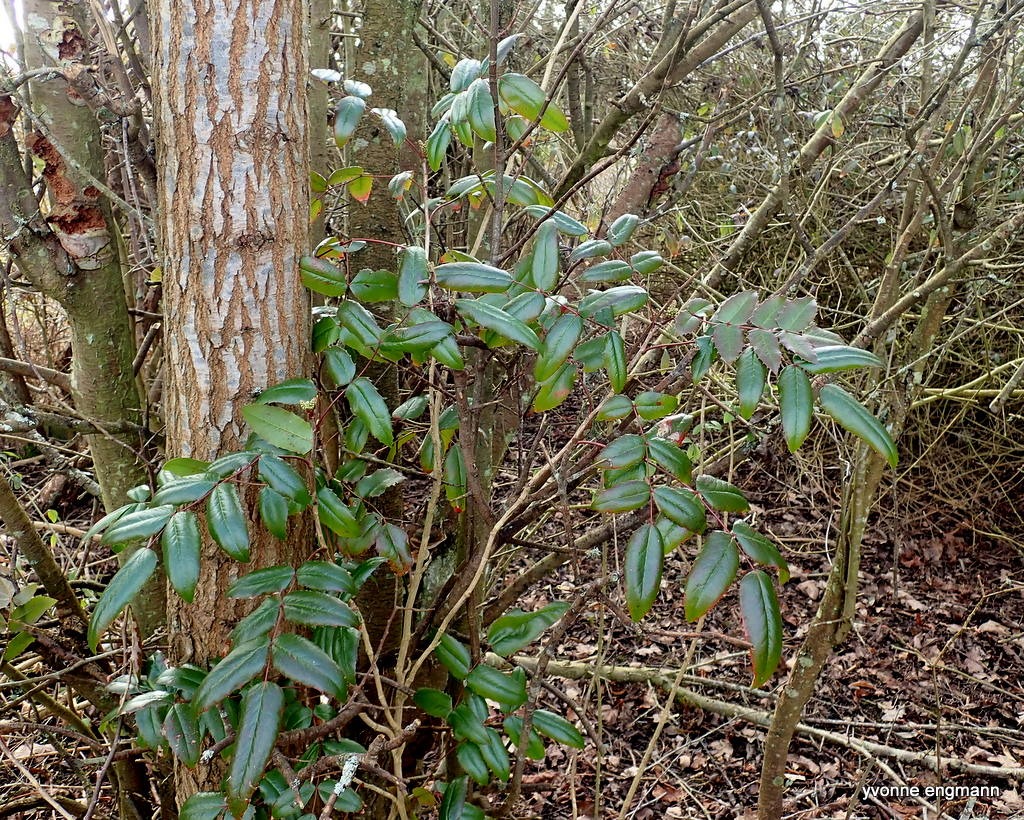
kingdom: Plantae
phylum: Tracheophyta
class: Magnoliopsida
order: Ranunculales
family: Berberidaceae
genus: Mahonia
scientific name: Mahonia aquifolium
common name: Almindelig mahonie
